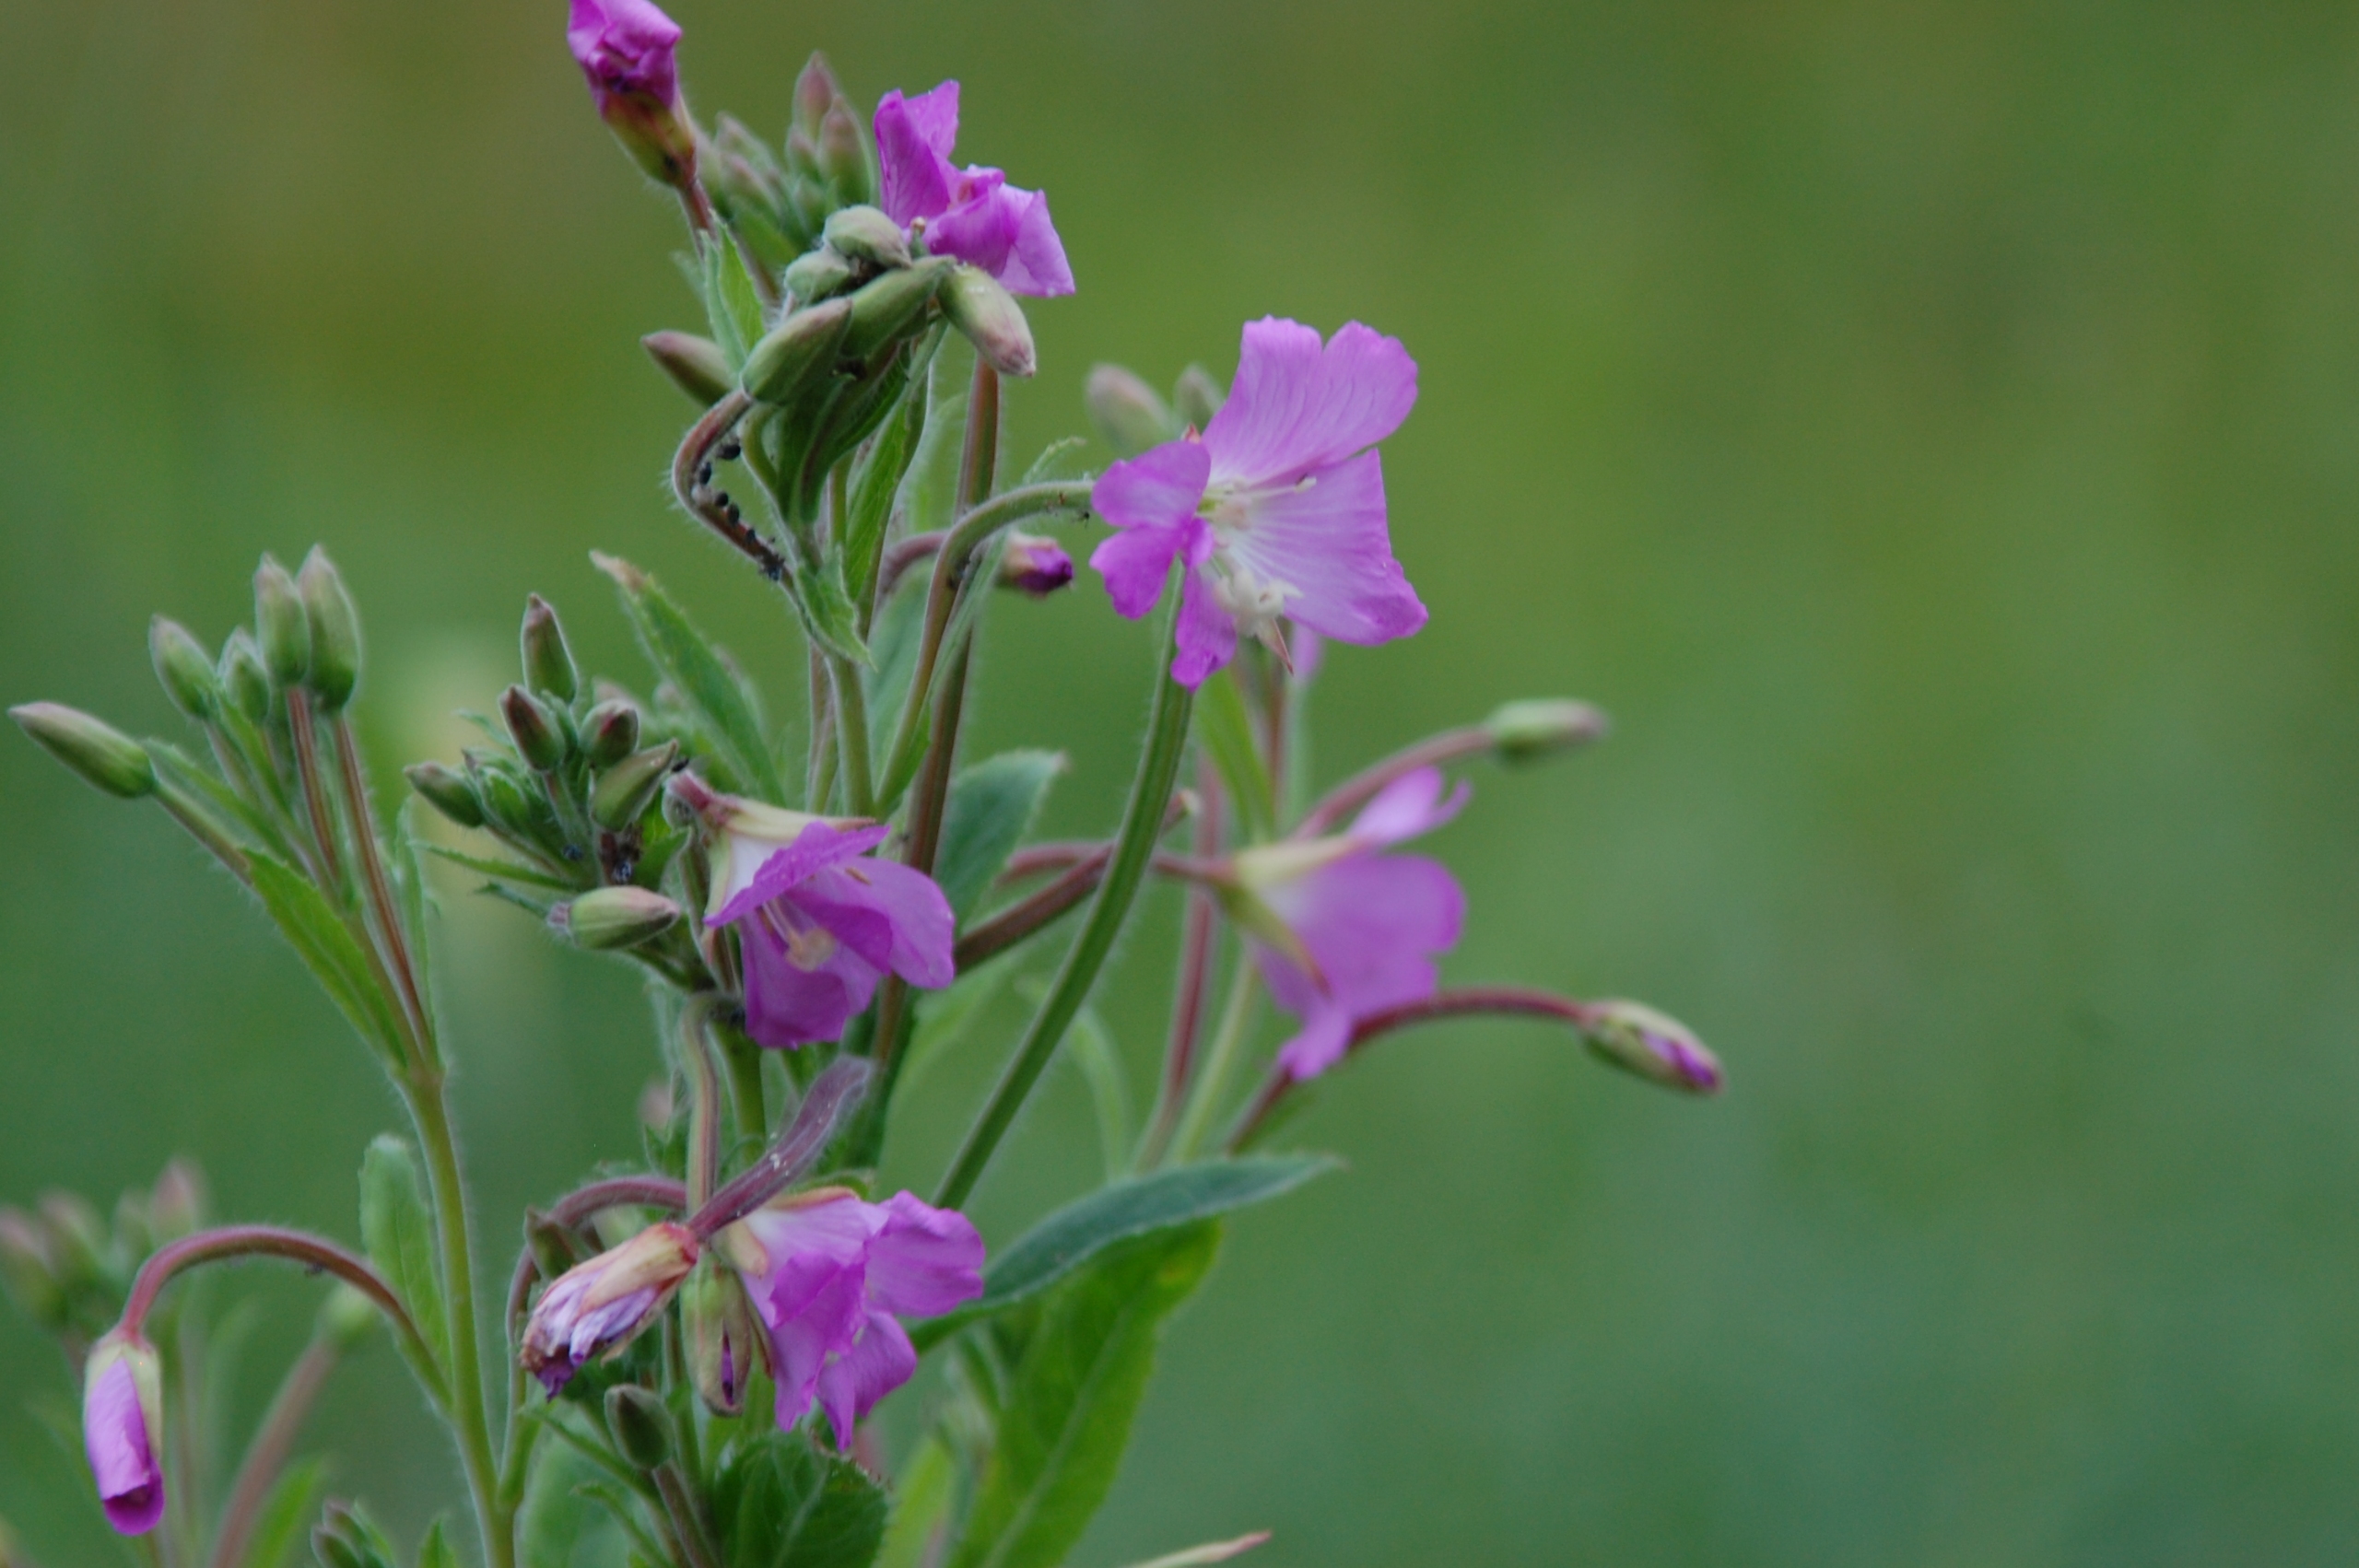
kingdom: Plantae
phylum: Tracheophyta
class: Magnoliopsida
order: Myrtales
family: Onagraceae
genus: Epilobium
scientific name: Epilobium hirsutum
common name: Lådden dueurt
